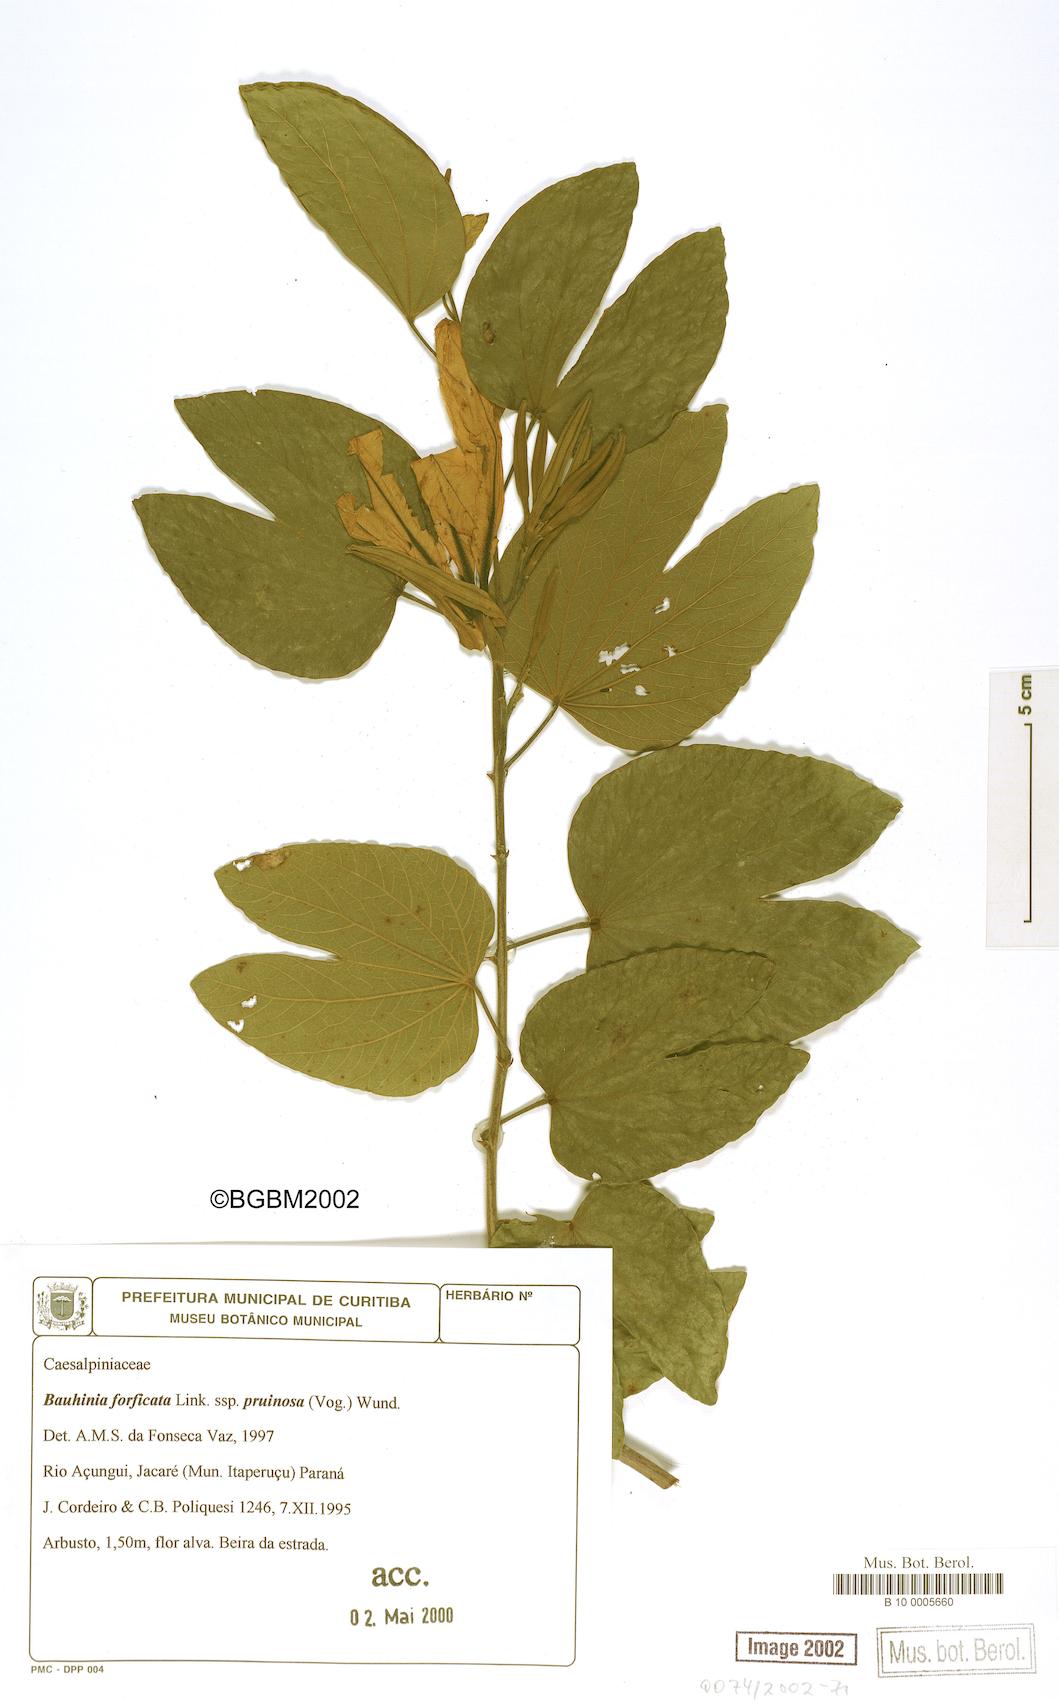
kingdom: Plantae
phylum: Tracheophyta
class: Magnoliopsida
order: Fabales
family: Fabaceae
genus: Bauhinia
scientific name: Bauhinia forficata
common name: Orchid tree
